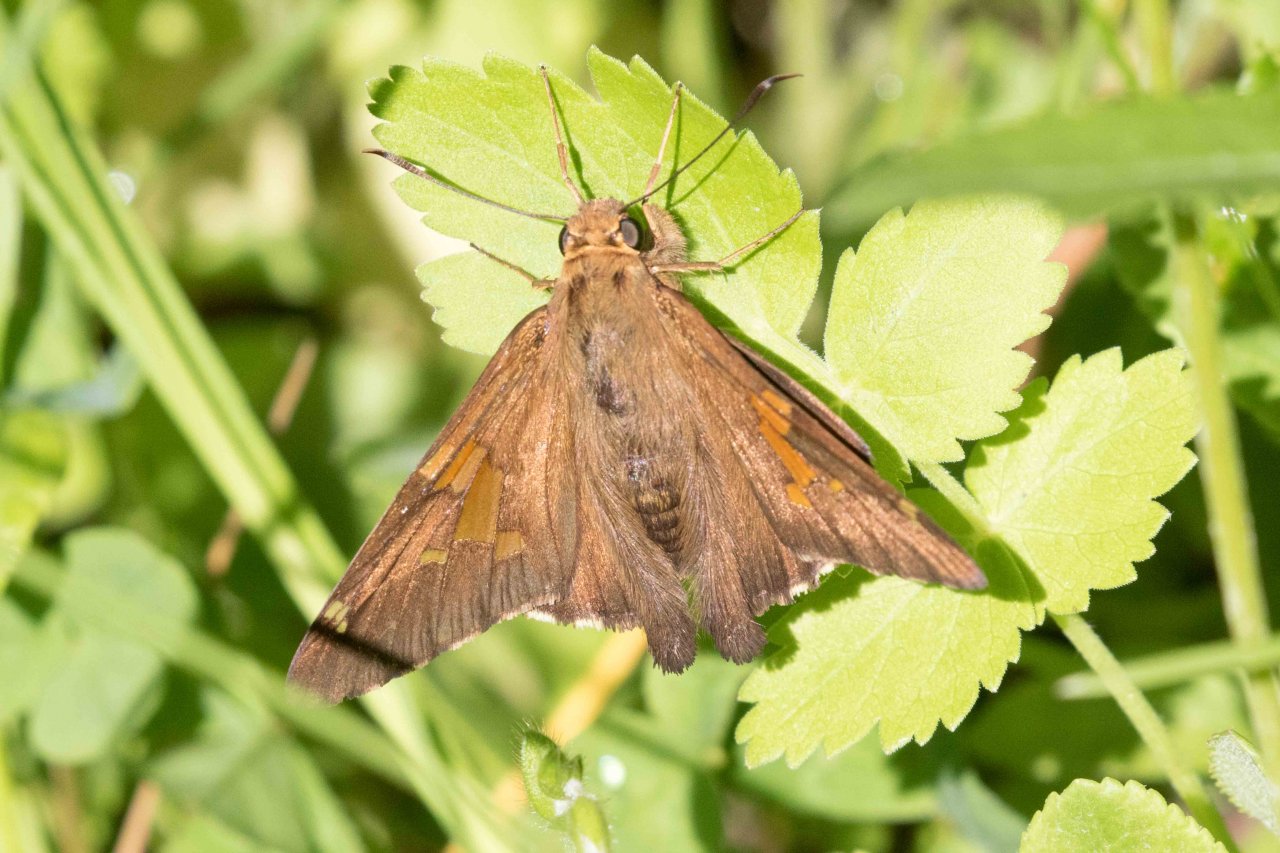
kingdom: Animalia
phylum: Arthropoda
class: Insecta
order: Lepidoptera
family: Hesperiidae
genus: Epargyreus
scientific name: Epargyreus clarus
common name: Silver-spotted Skipper
